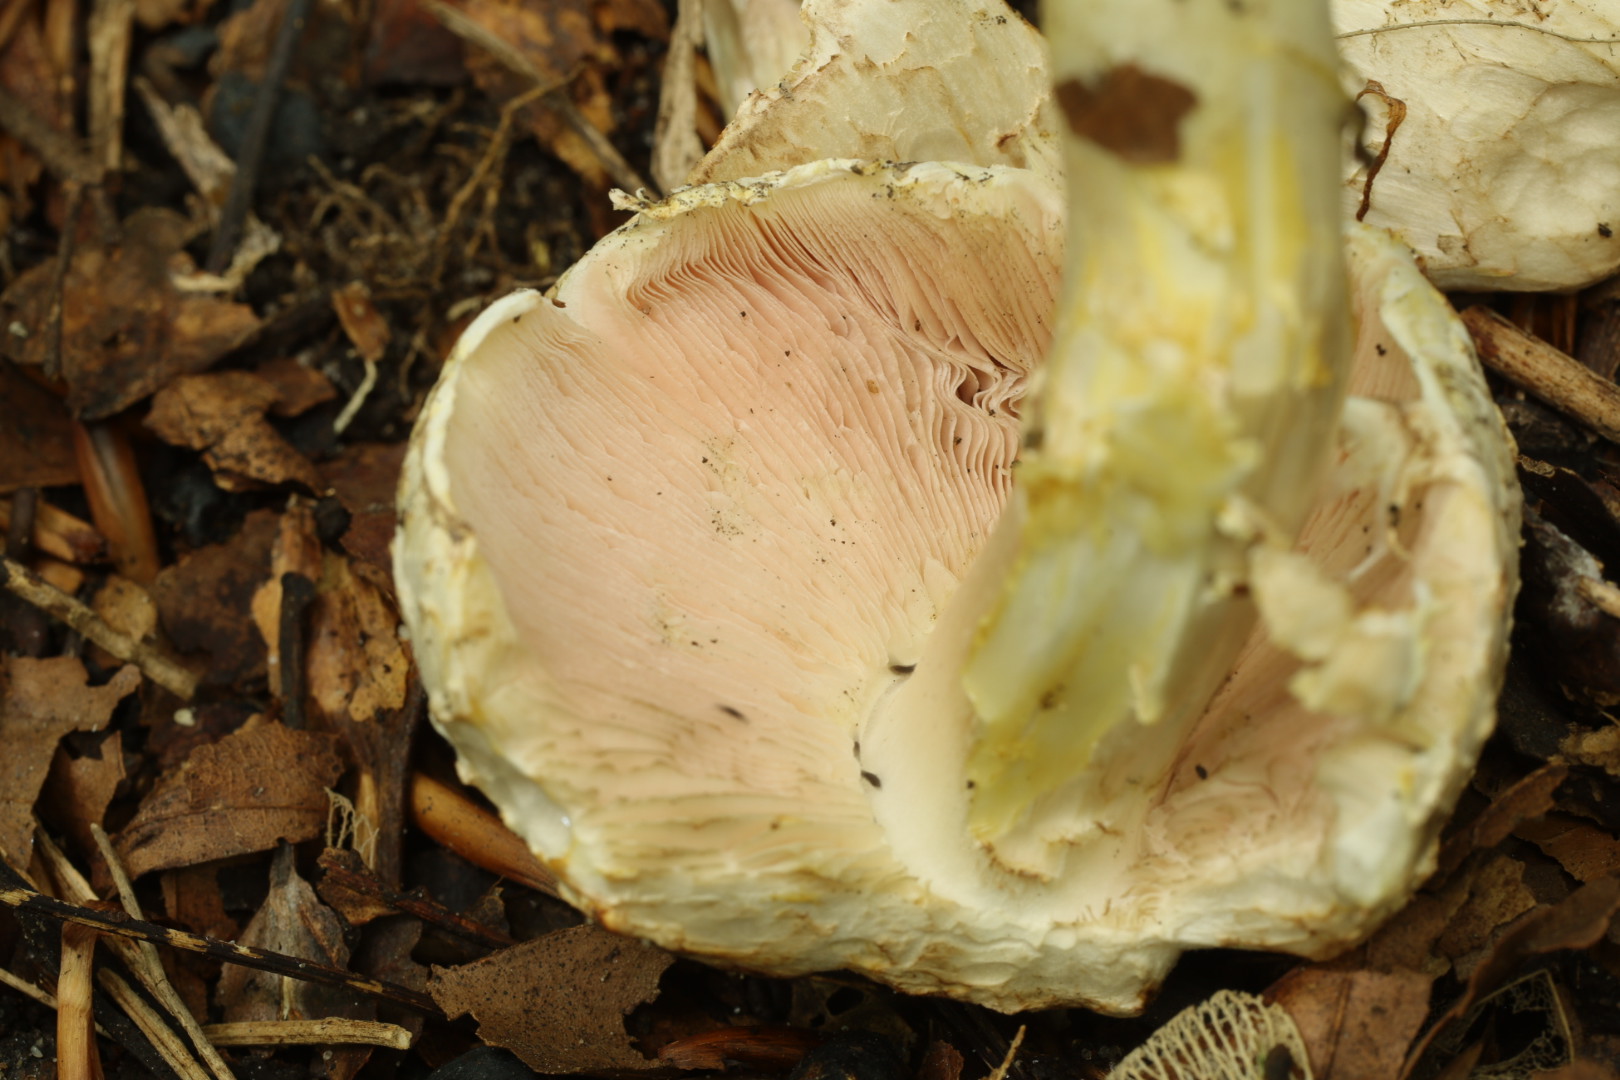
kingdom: Fungi
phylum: Basidiomycota
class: Agaricomycetes
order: Agaricales
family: Agaricaceae
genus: Agaricus
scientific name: Agaricus moelleri
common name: perlehøne-champignon
